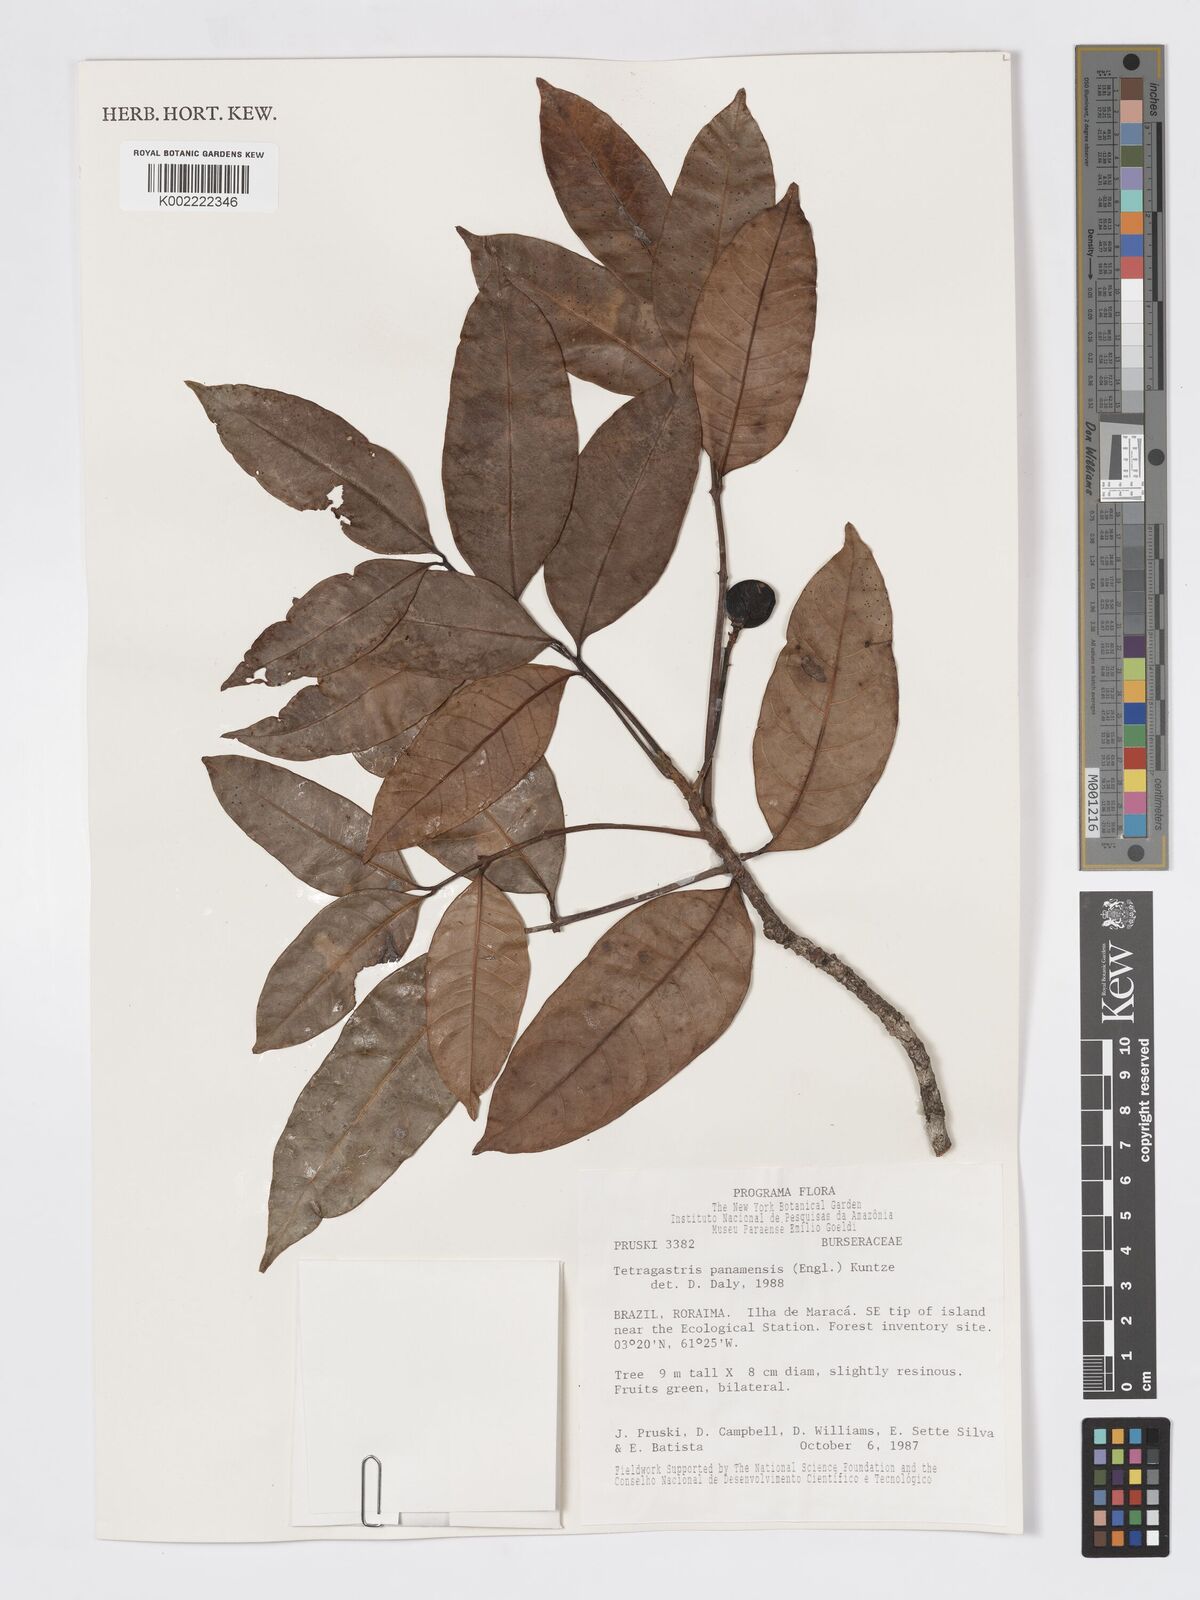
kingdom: Plantae
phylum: Tracheophyta
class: Magnoliopsida
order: Sapindales
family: Burseraceae
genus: Tetragastris
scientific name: Tetragastris panamensis
